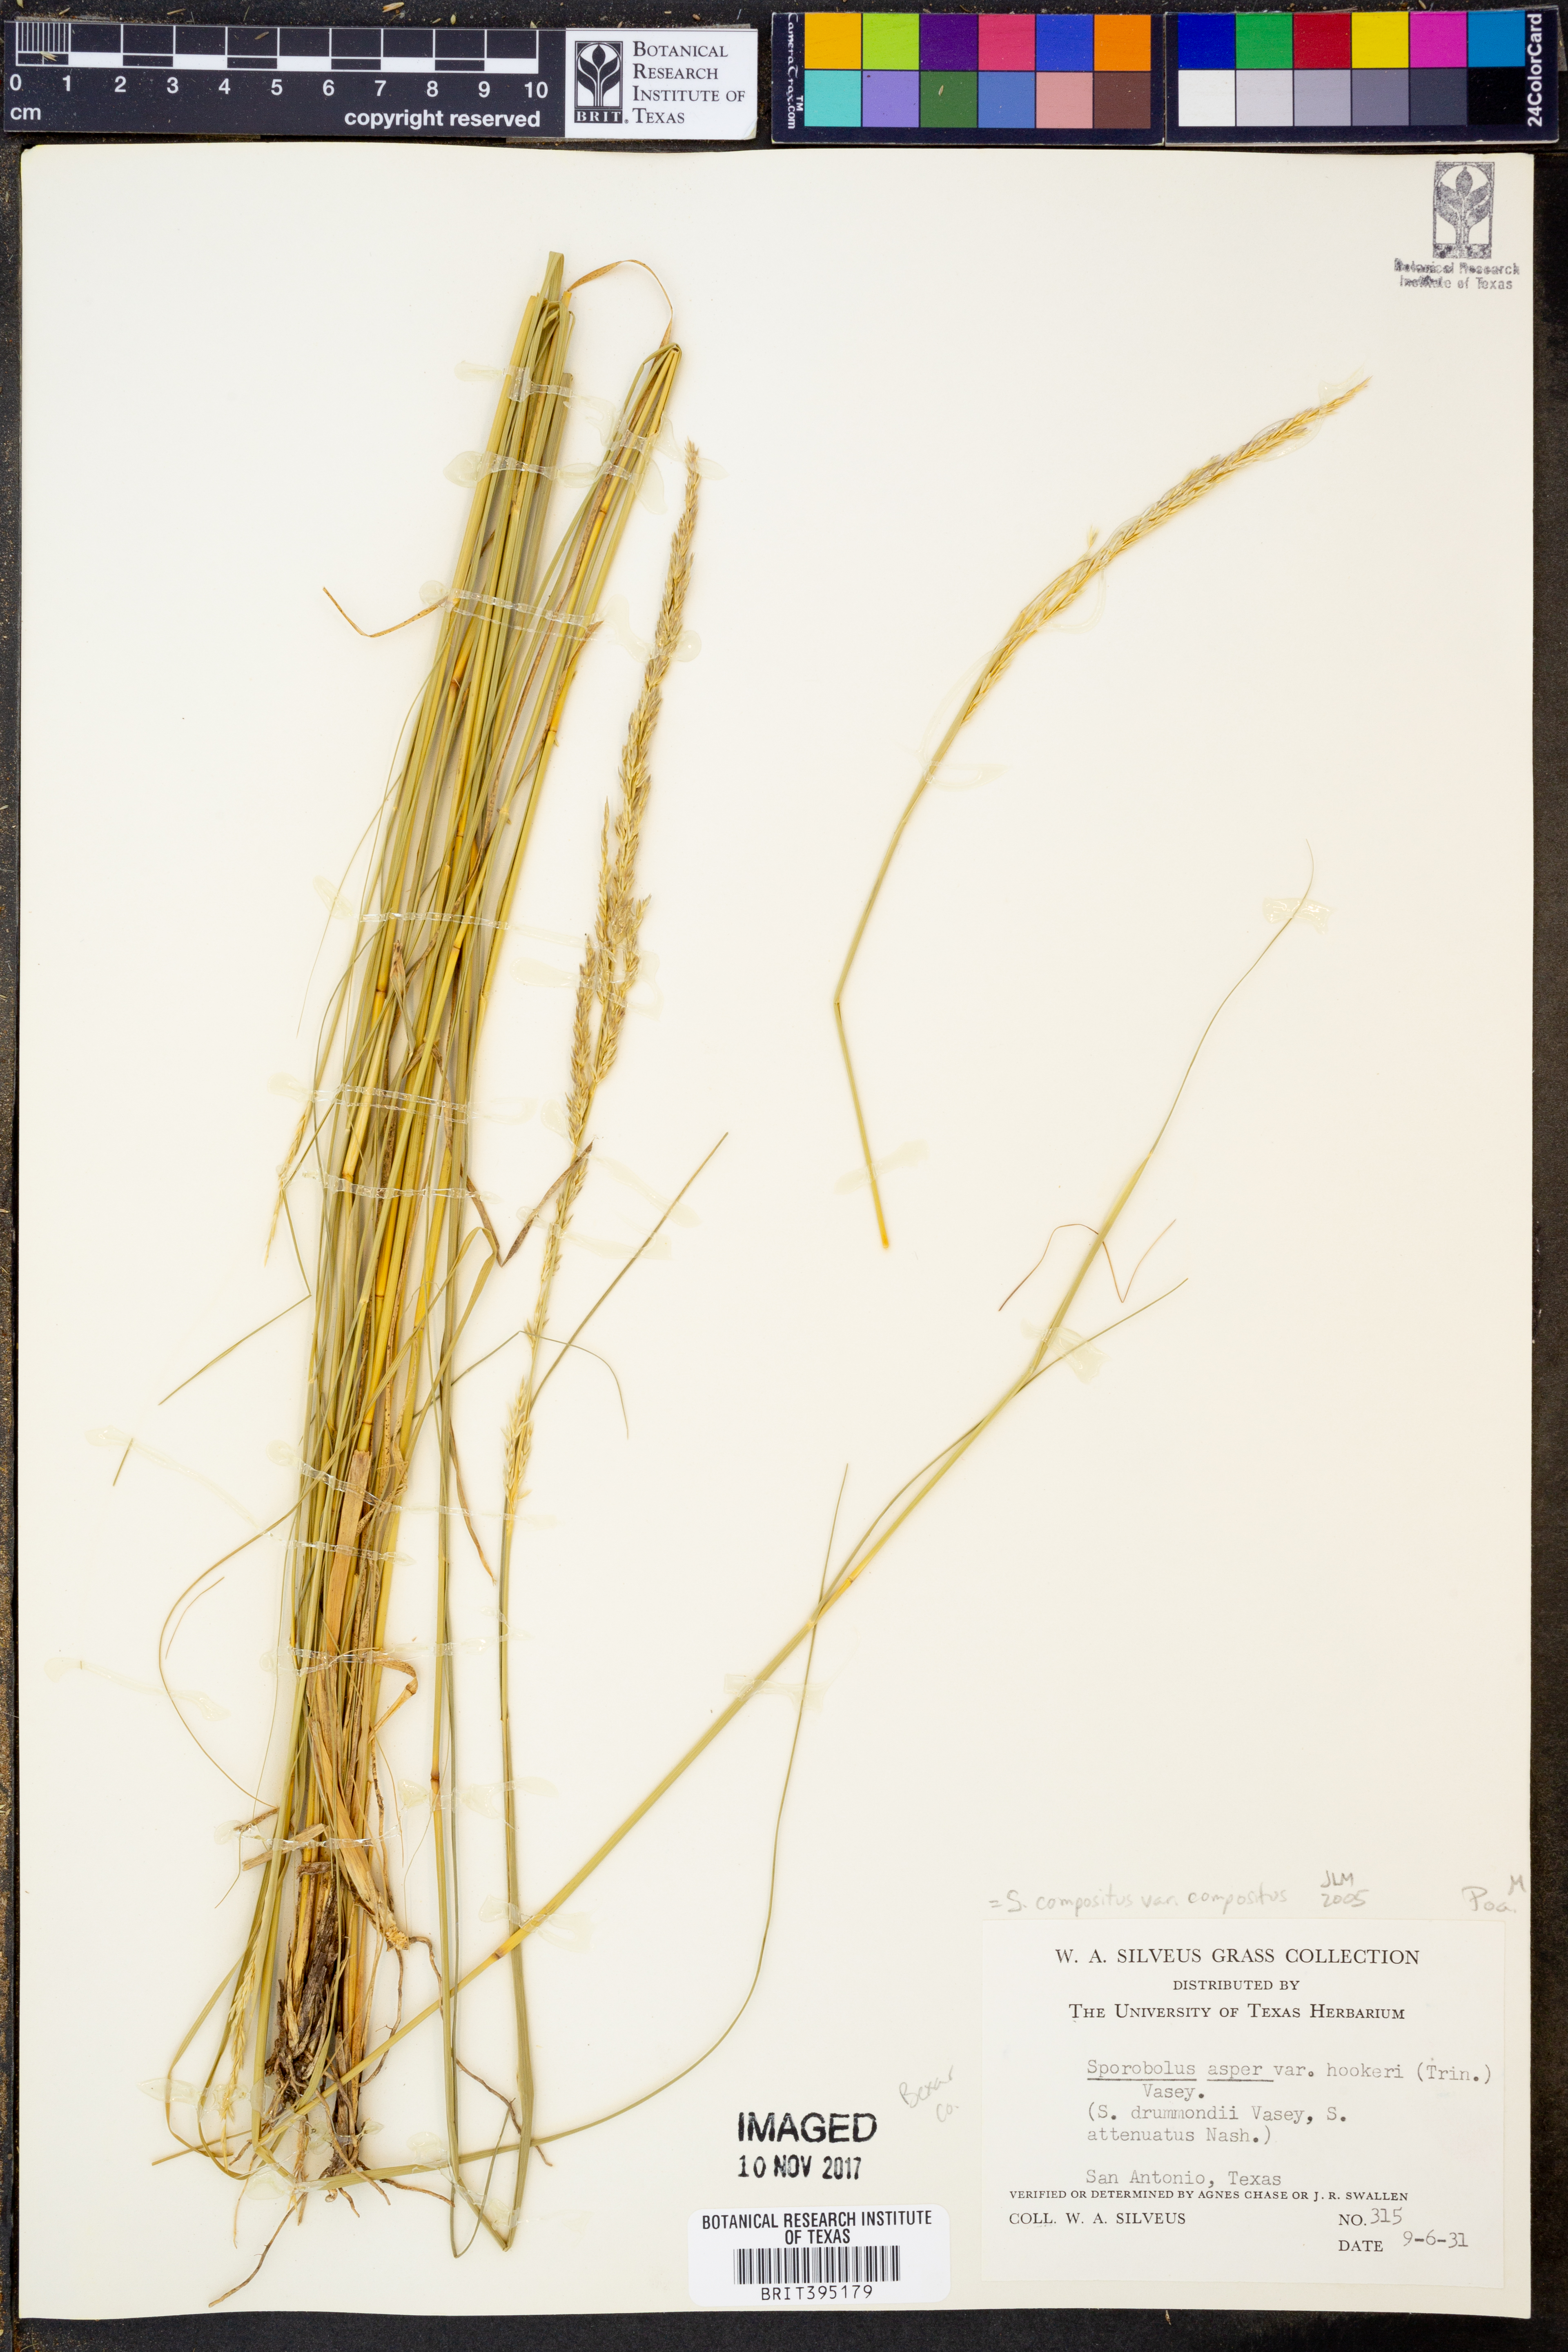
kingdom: Plantae
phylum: Tracheophyta
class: Liliopsida
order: Poales
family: Poaceae
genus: Sporobolus
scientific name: Sporobolus compositus
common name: Rough dropseed
